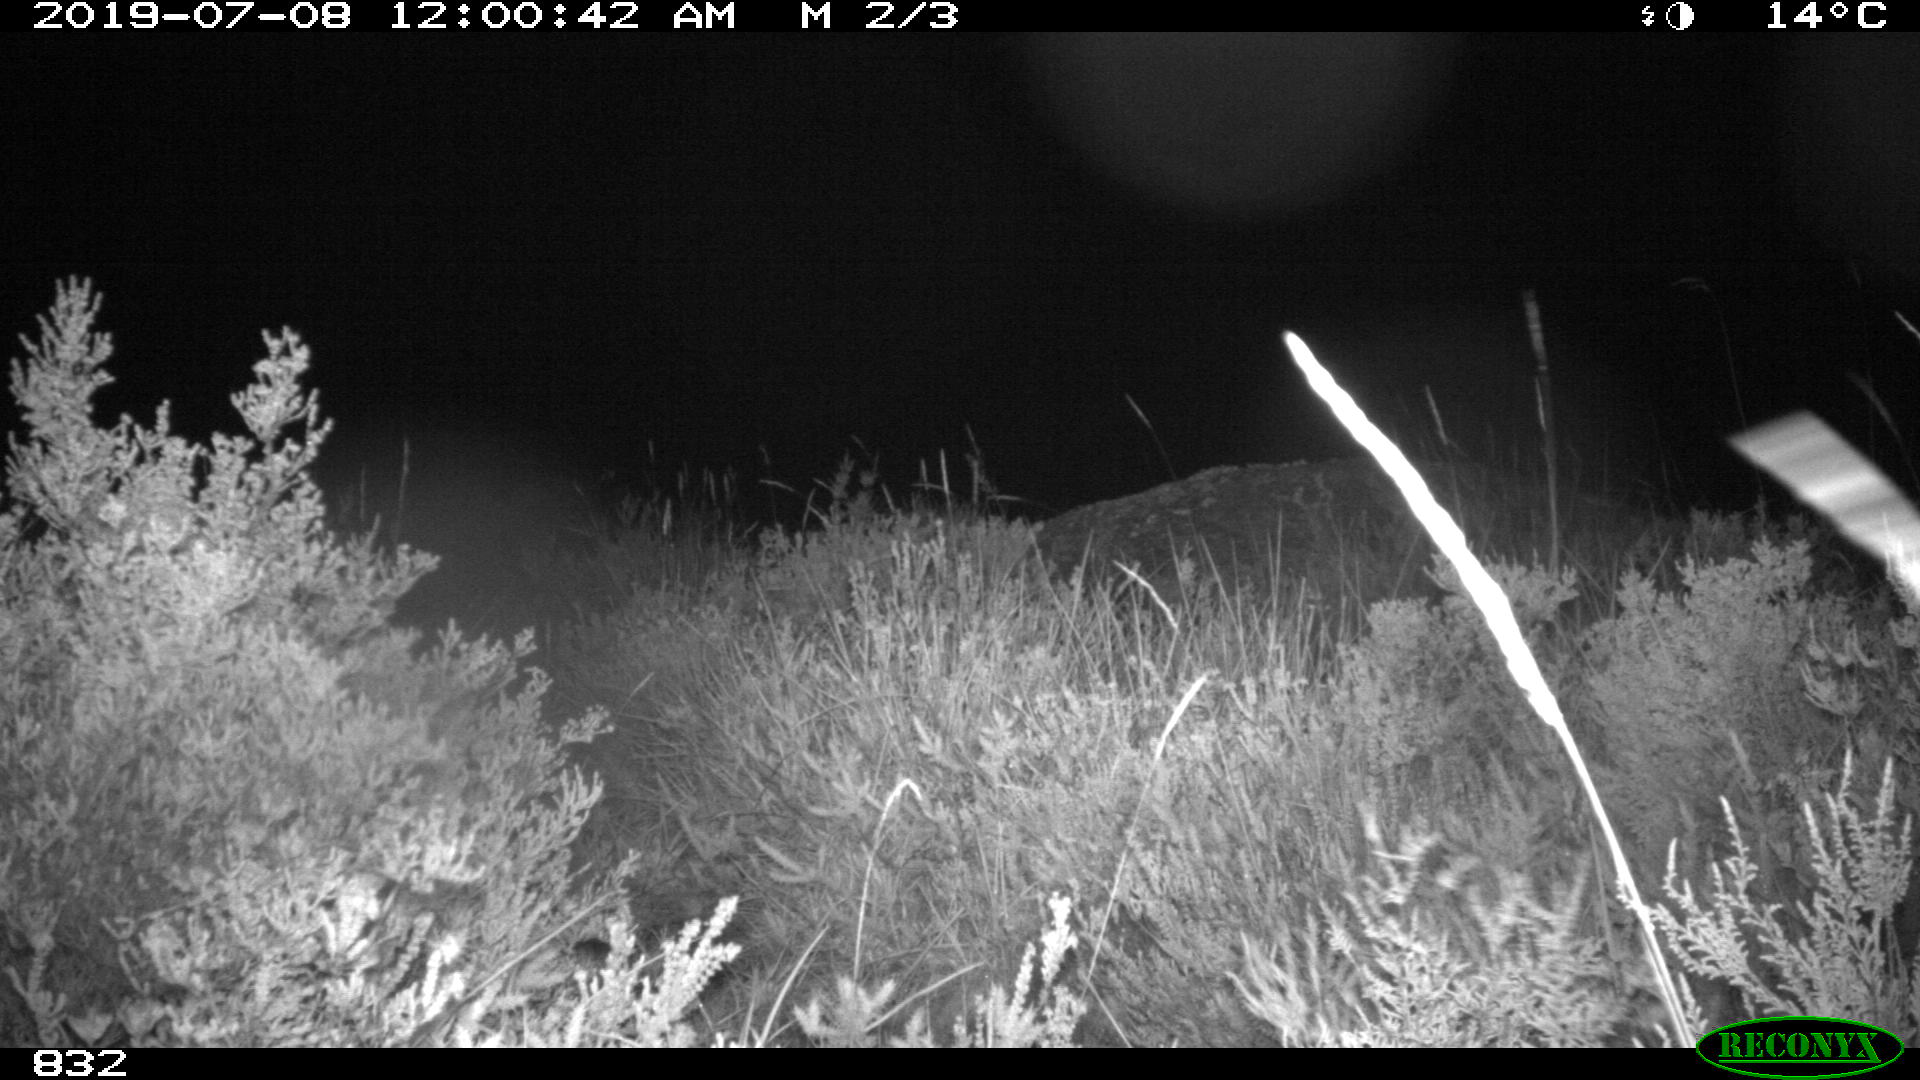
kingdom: Animalia
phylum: Chordata
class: Mammalia
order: Artiodactyla
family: Suidae
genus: Sus
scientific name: Sus scrofa
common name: Wild boar
